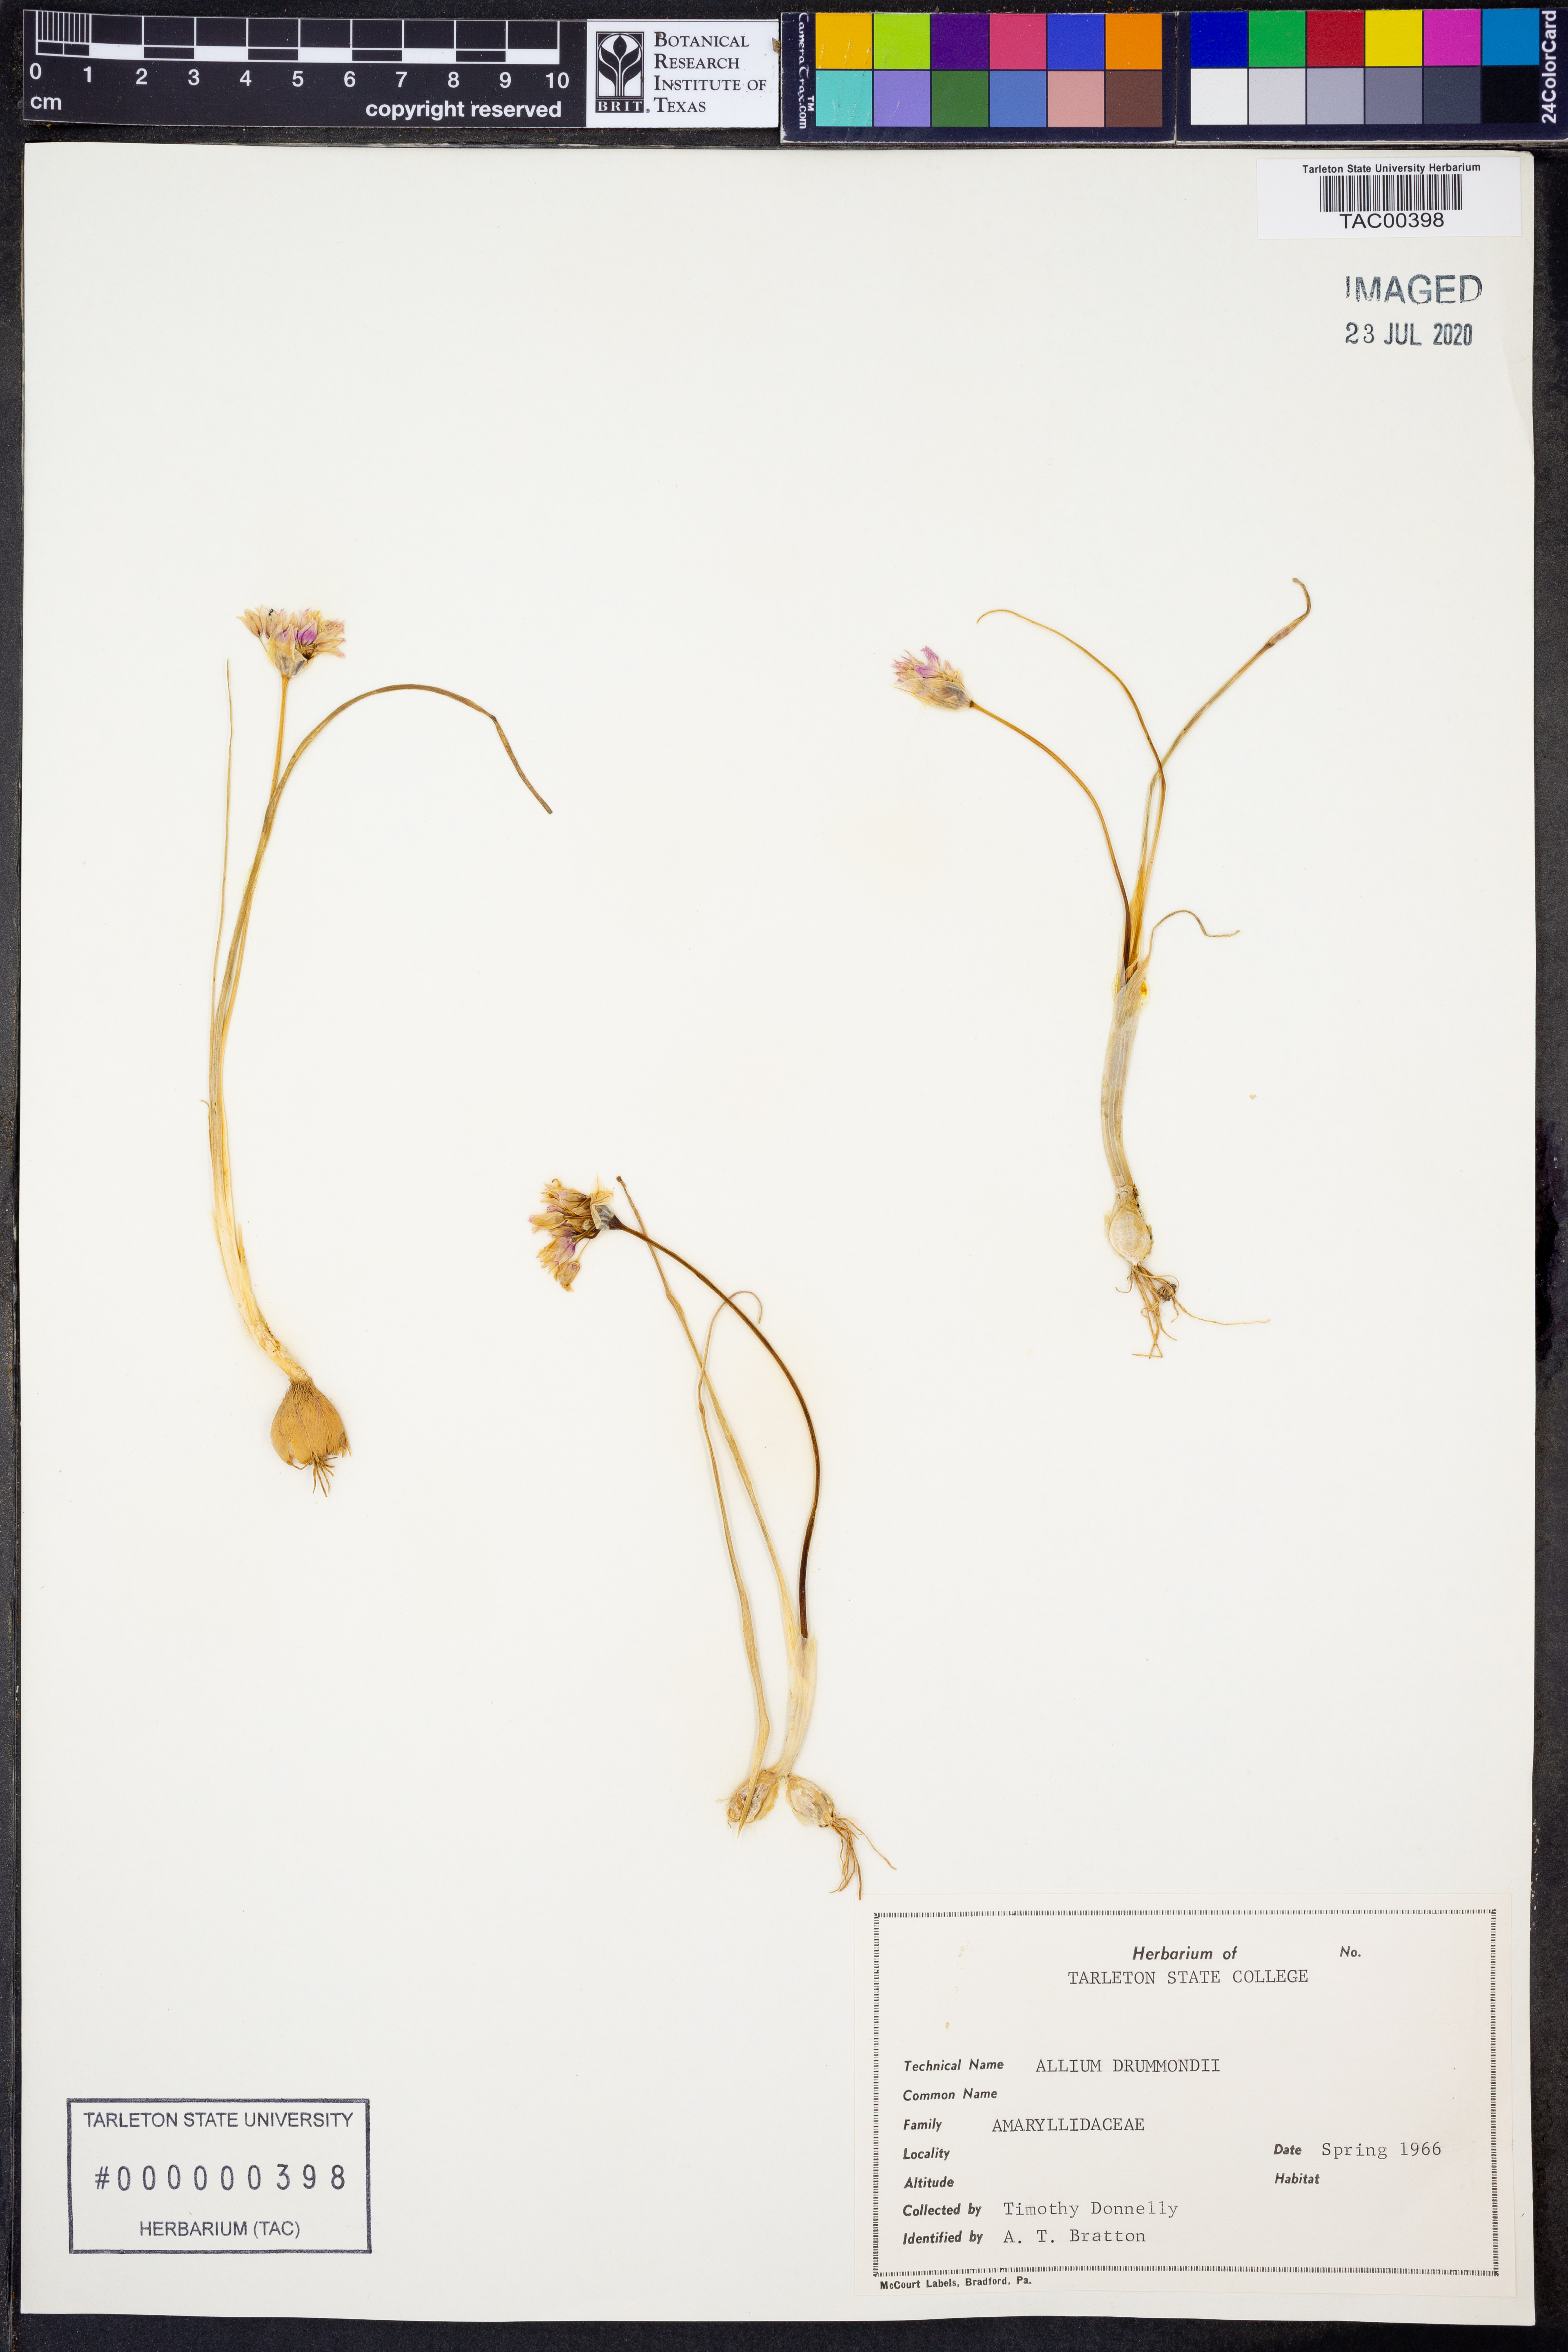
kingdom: Plantae
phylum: Tracheophyta
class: Liliopsida
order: Asparagales
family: Amaryllidaceae
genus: Allium
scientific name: Allium drummondii
